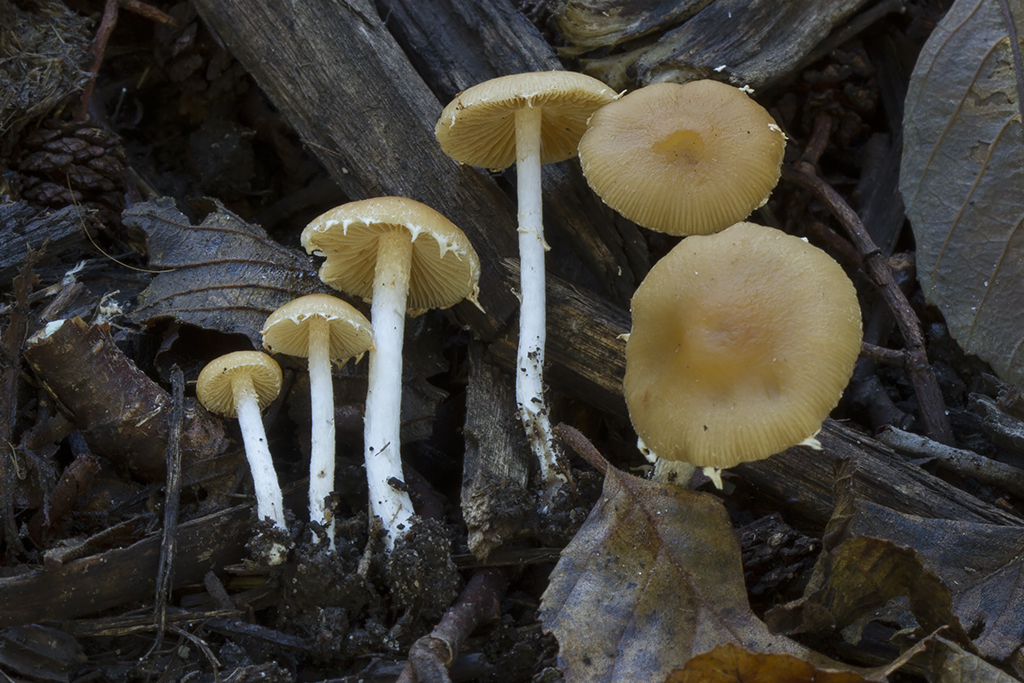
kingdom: Fungi
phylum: Basidiomycota
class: Agaricomycetes
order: Agaricales
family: Bolbitiaceae
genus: Conocybe
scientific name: Conocybe velata
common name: tandet dansehat
